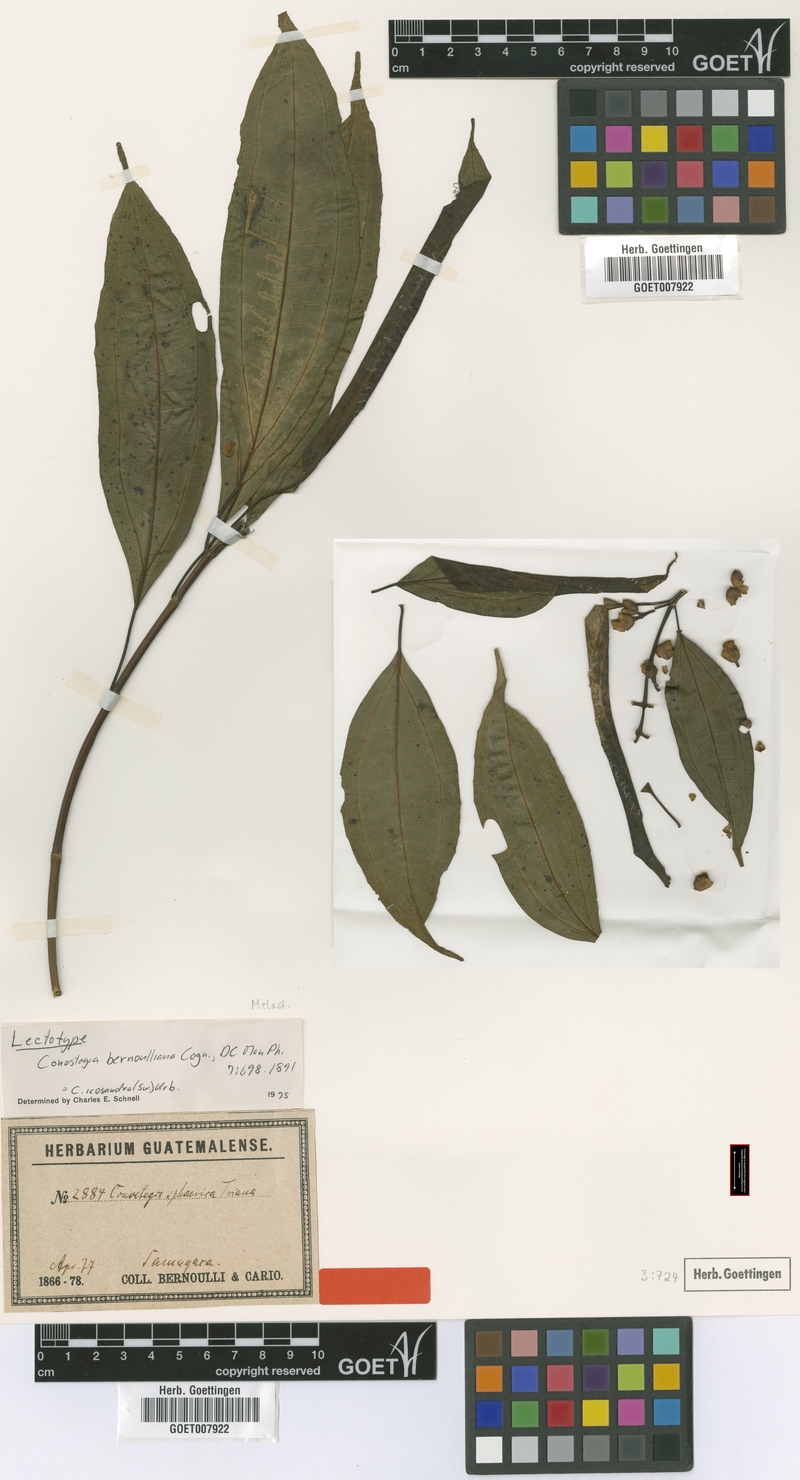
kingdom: Plantae
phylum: Tracheophyta
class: Magnoliopsida
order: Myrtales
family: Melastomataceae
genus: Miconia
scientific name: Miconia subhirsuta
